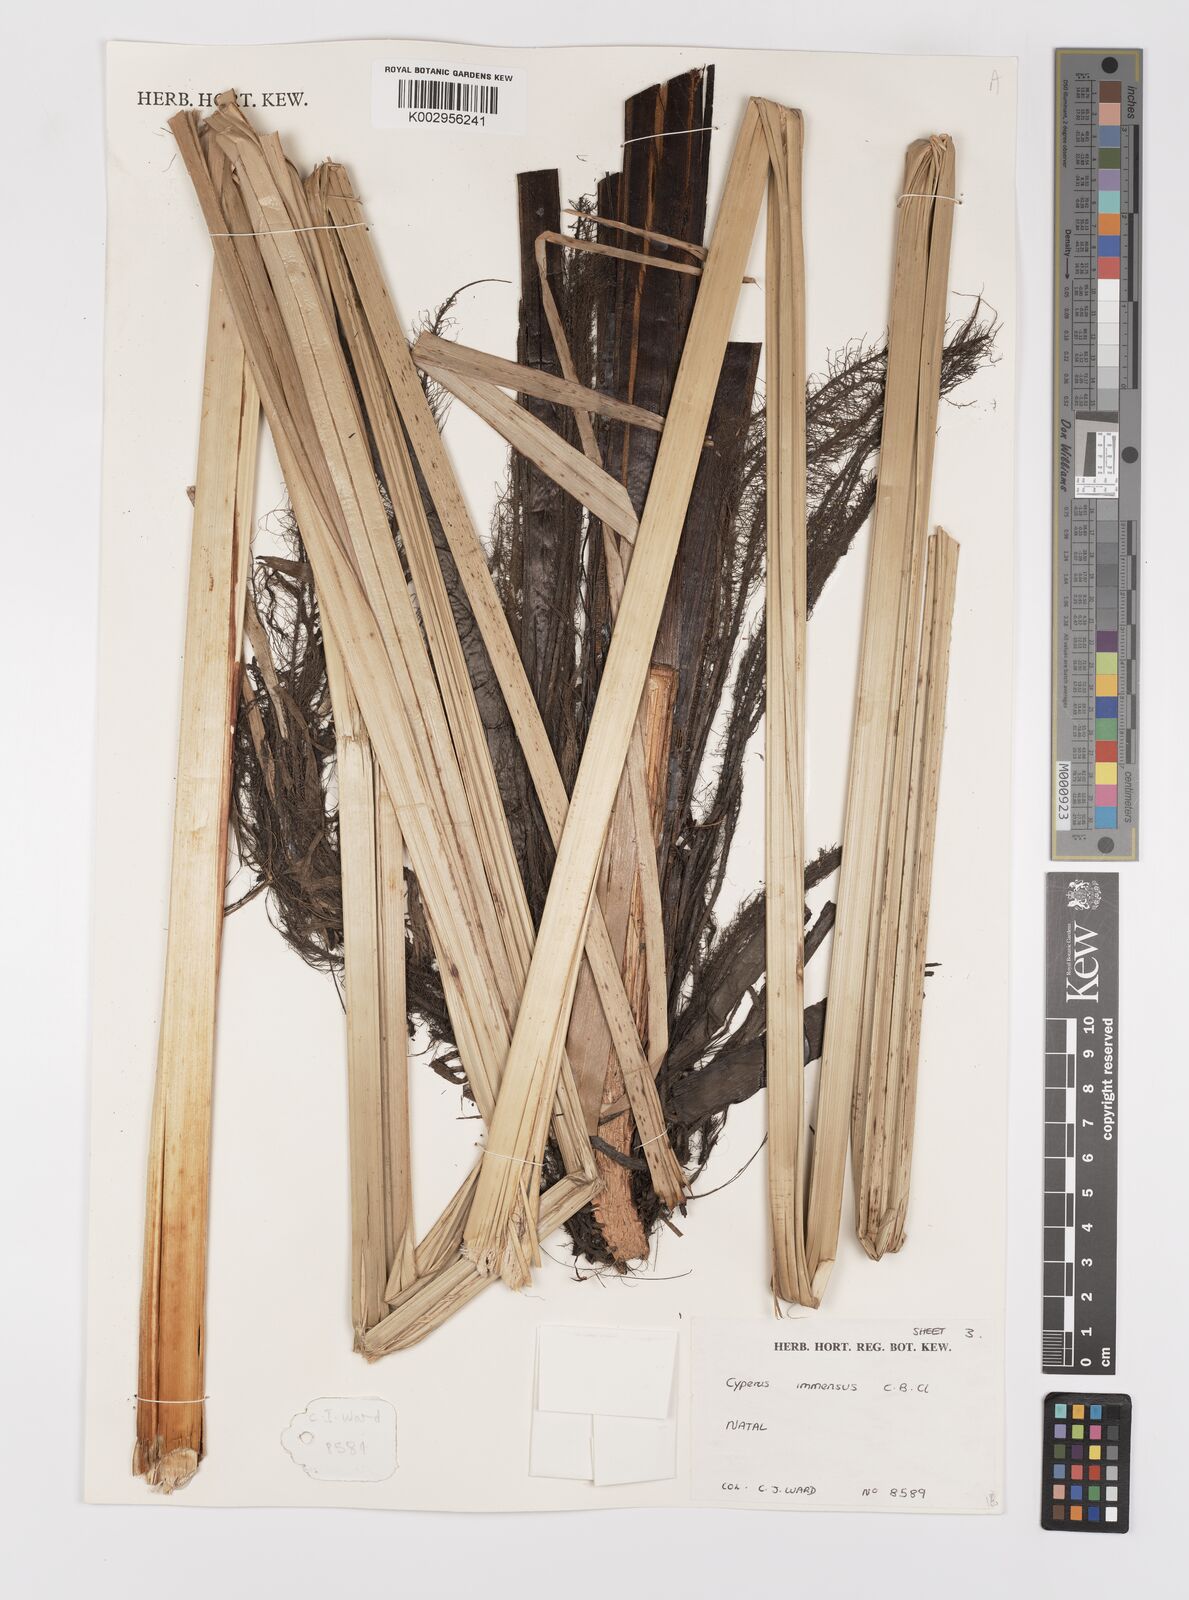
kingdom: Plantae
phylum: Tracheophyta
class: Liliopsida
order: Poales
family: Cyperaceae
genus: Cyperus
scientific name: Cyperus dives
